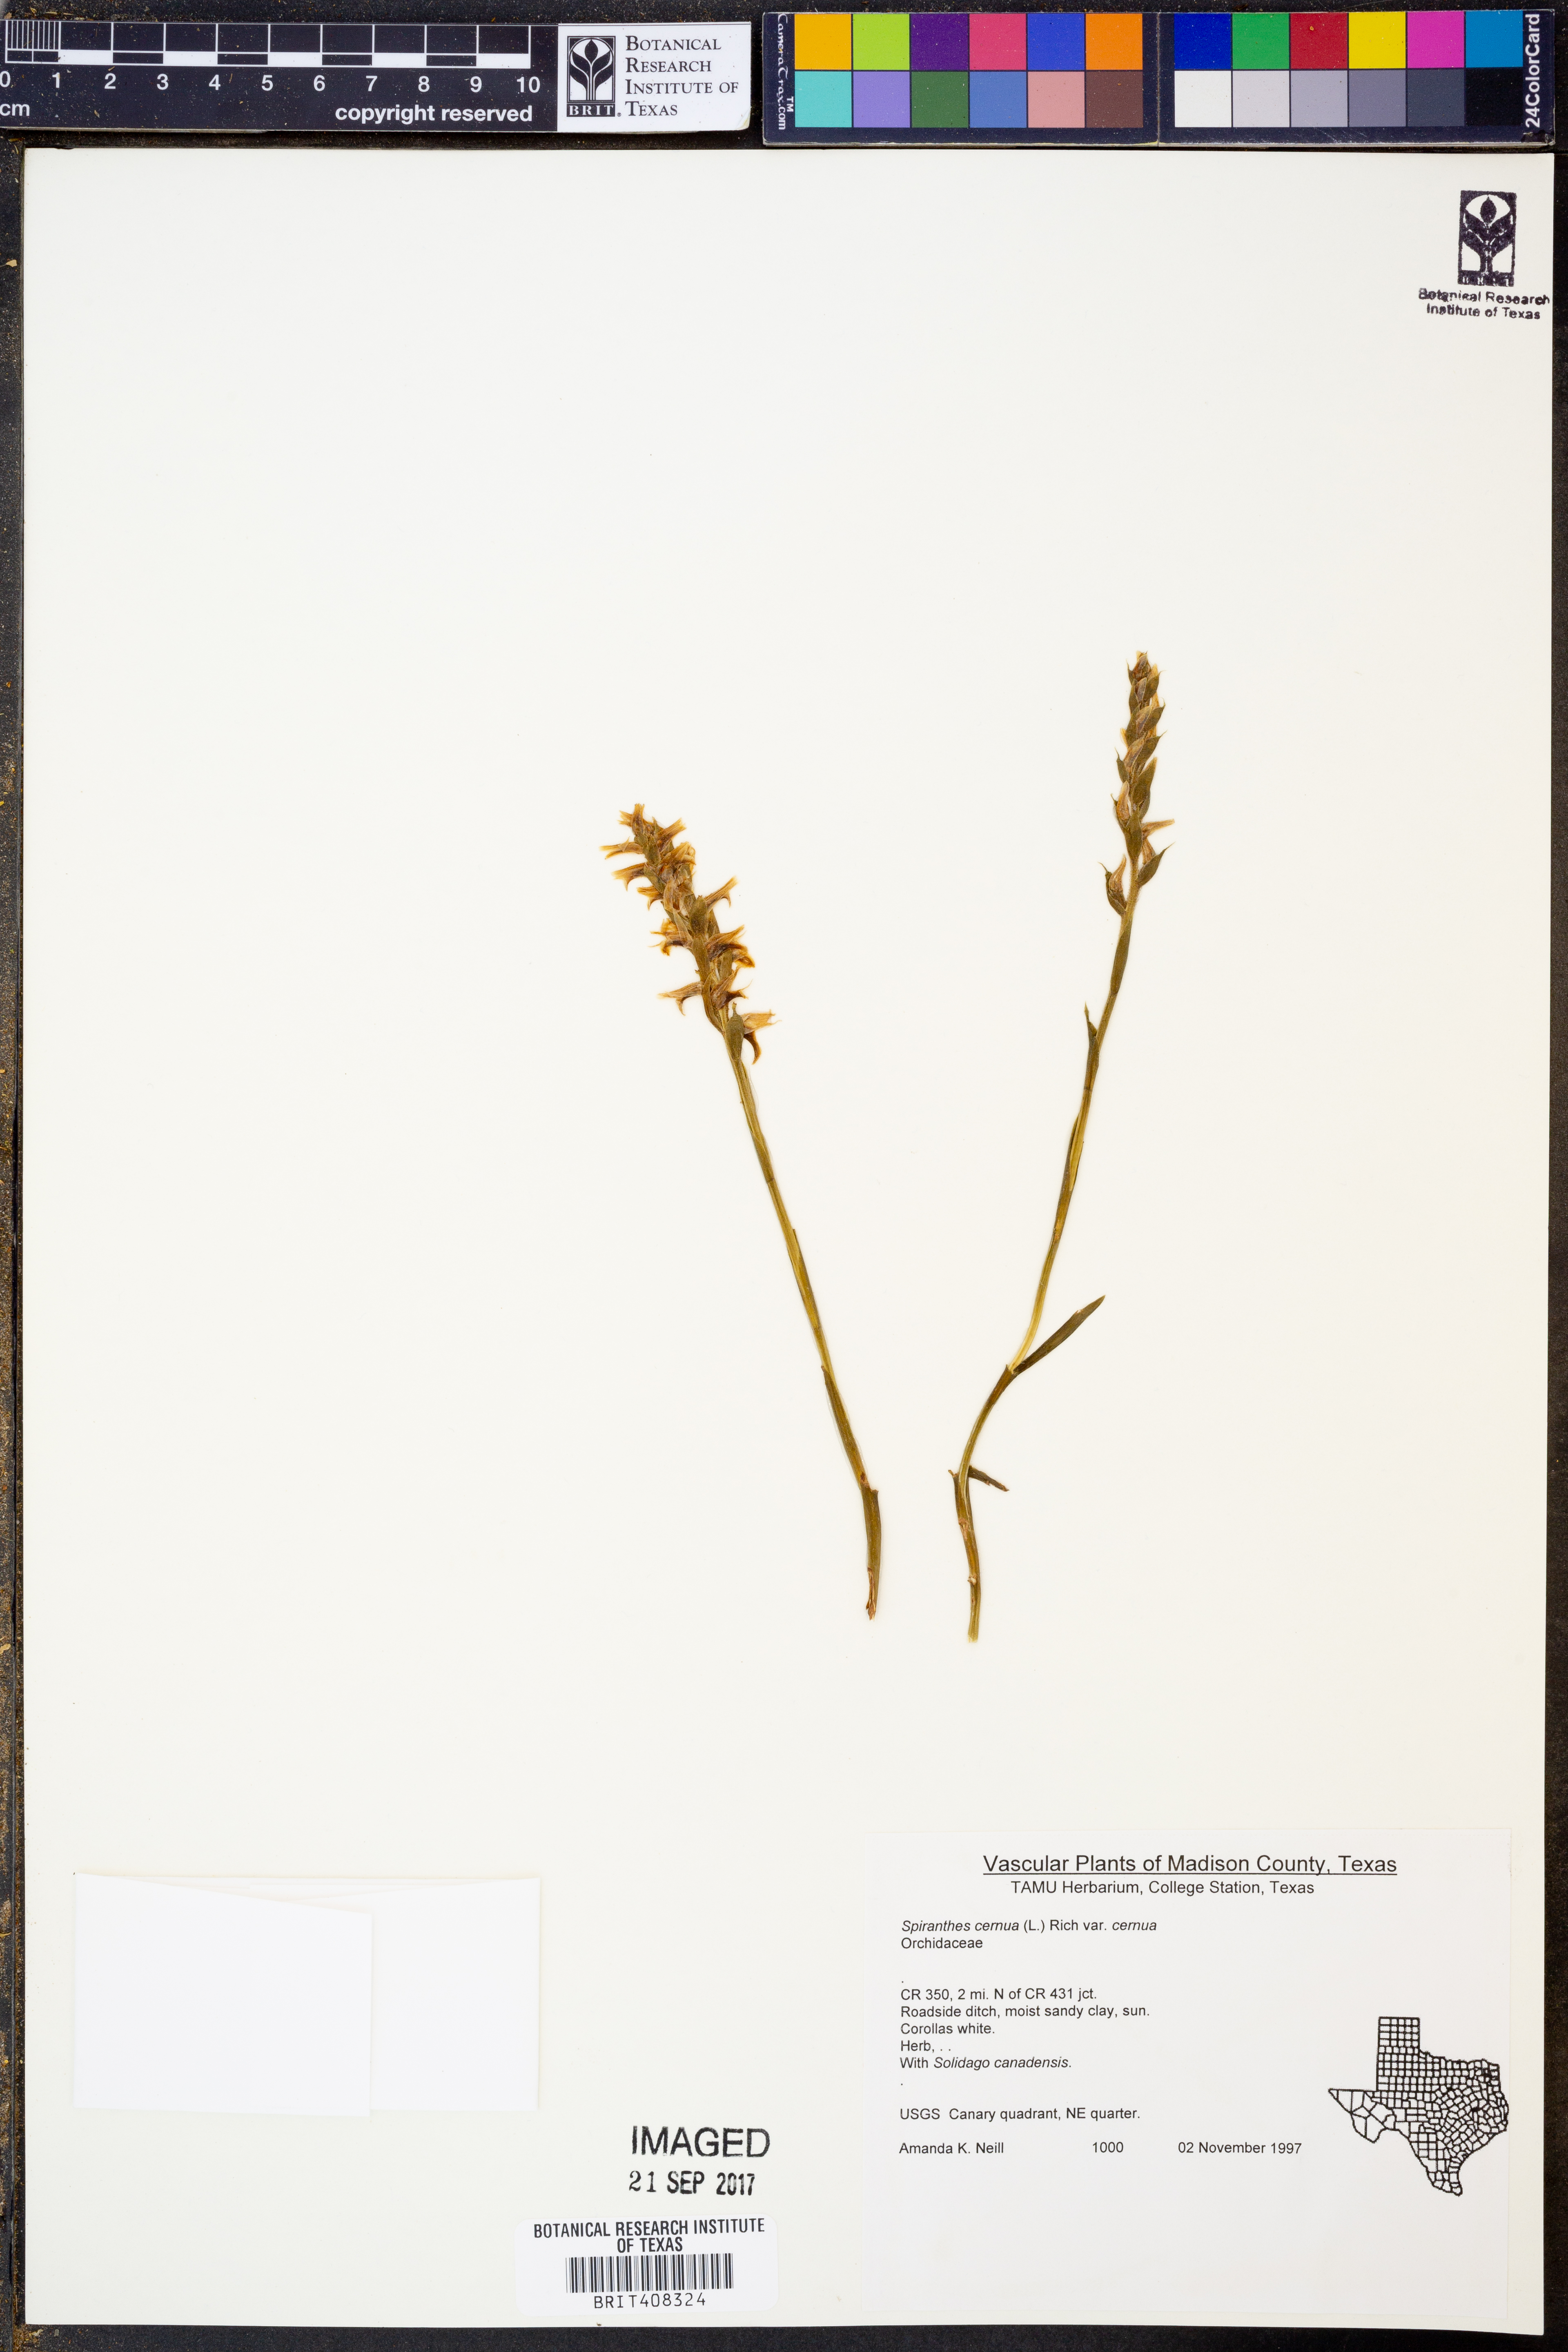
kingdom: Plantae
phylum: Tracheophyta
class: Liliopsida
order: Asparagales
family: Orchidaceae
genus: Spiranthes
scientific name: Spiranthes cernua
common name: Dropping ladies'-tresses
